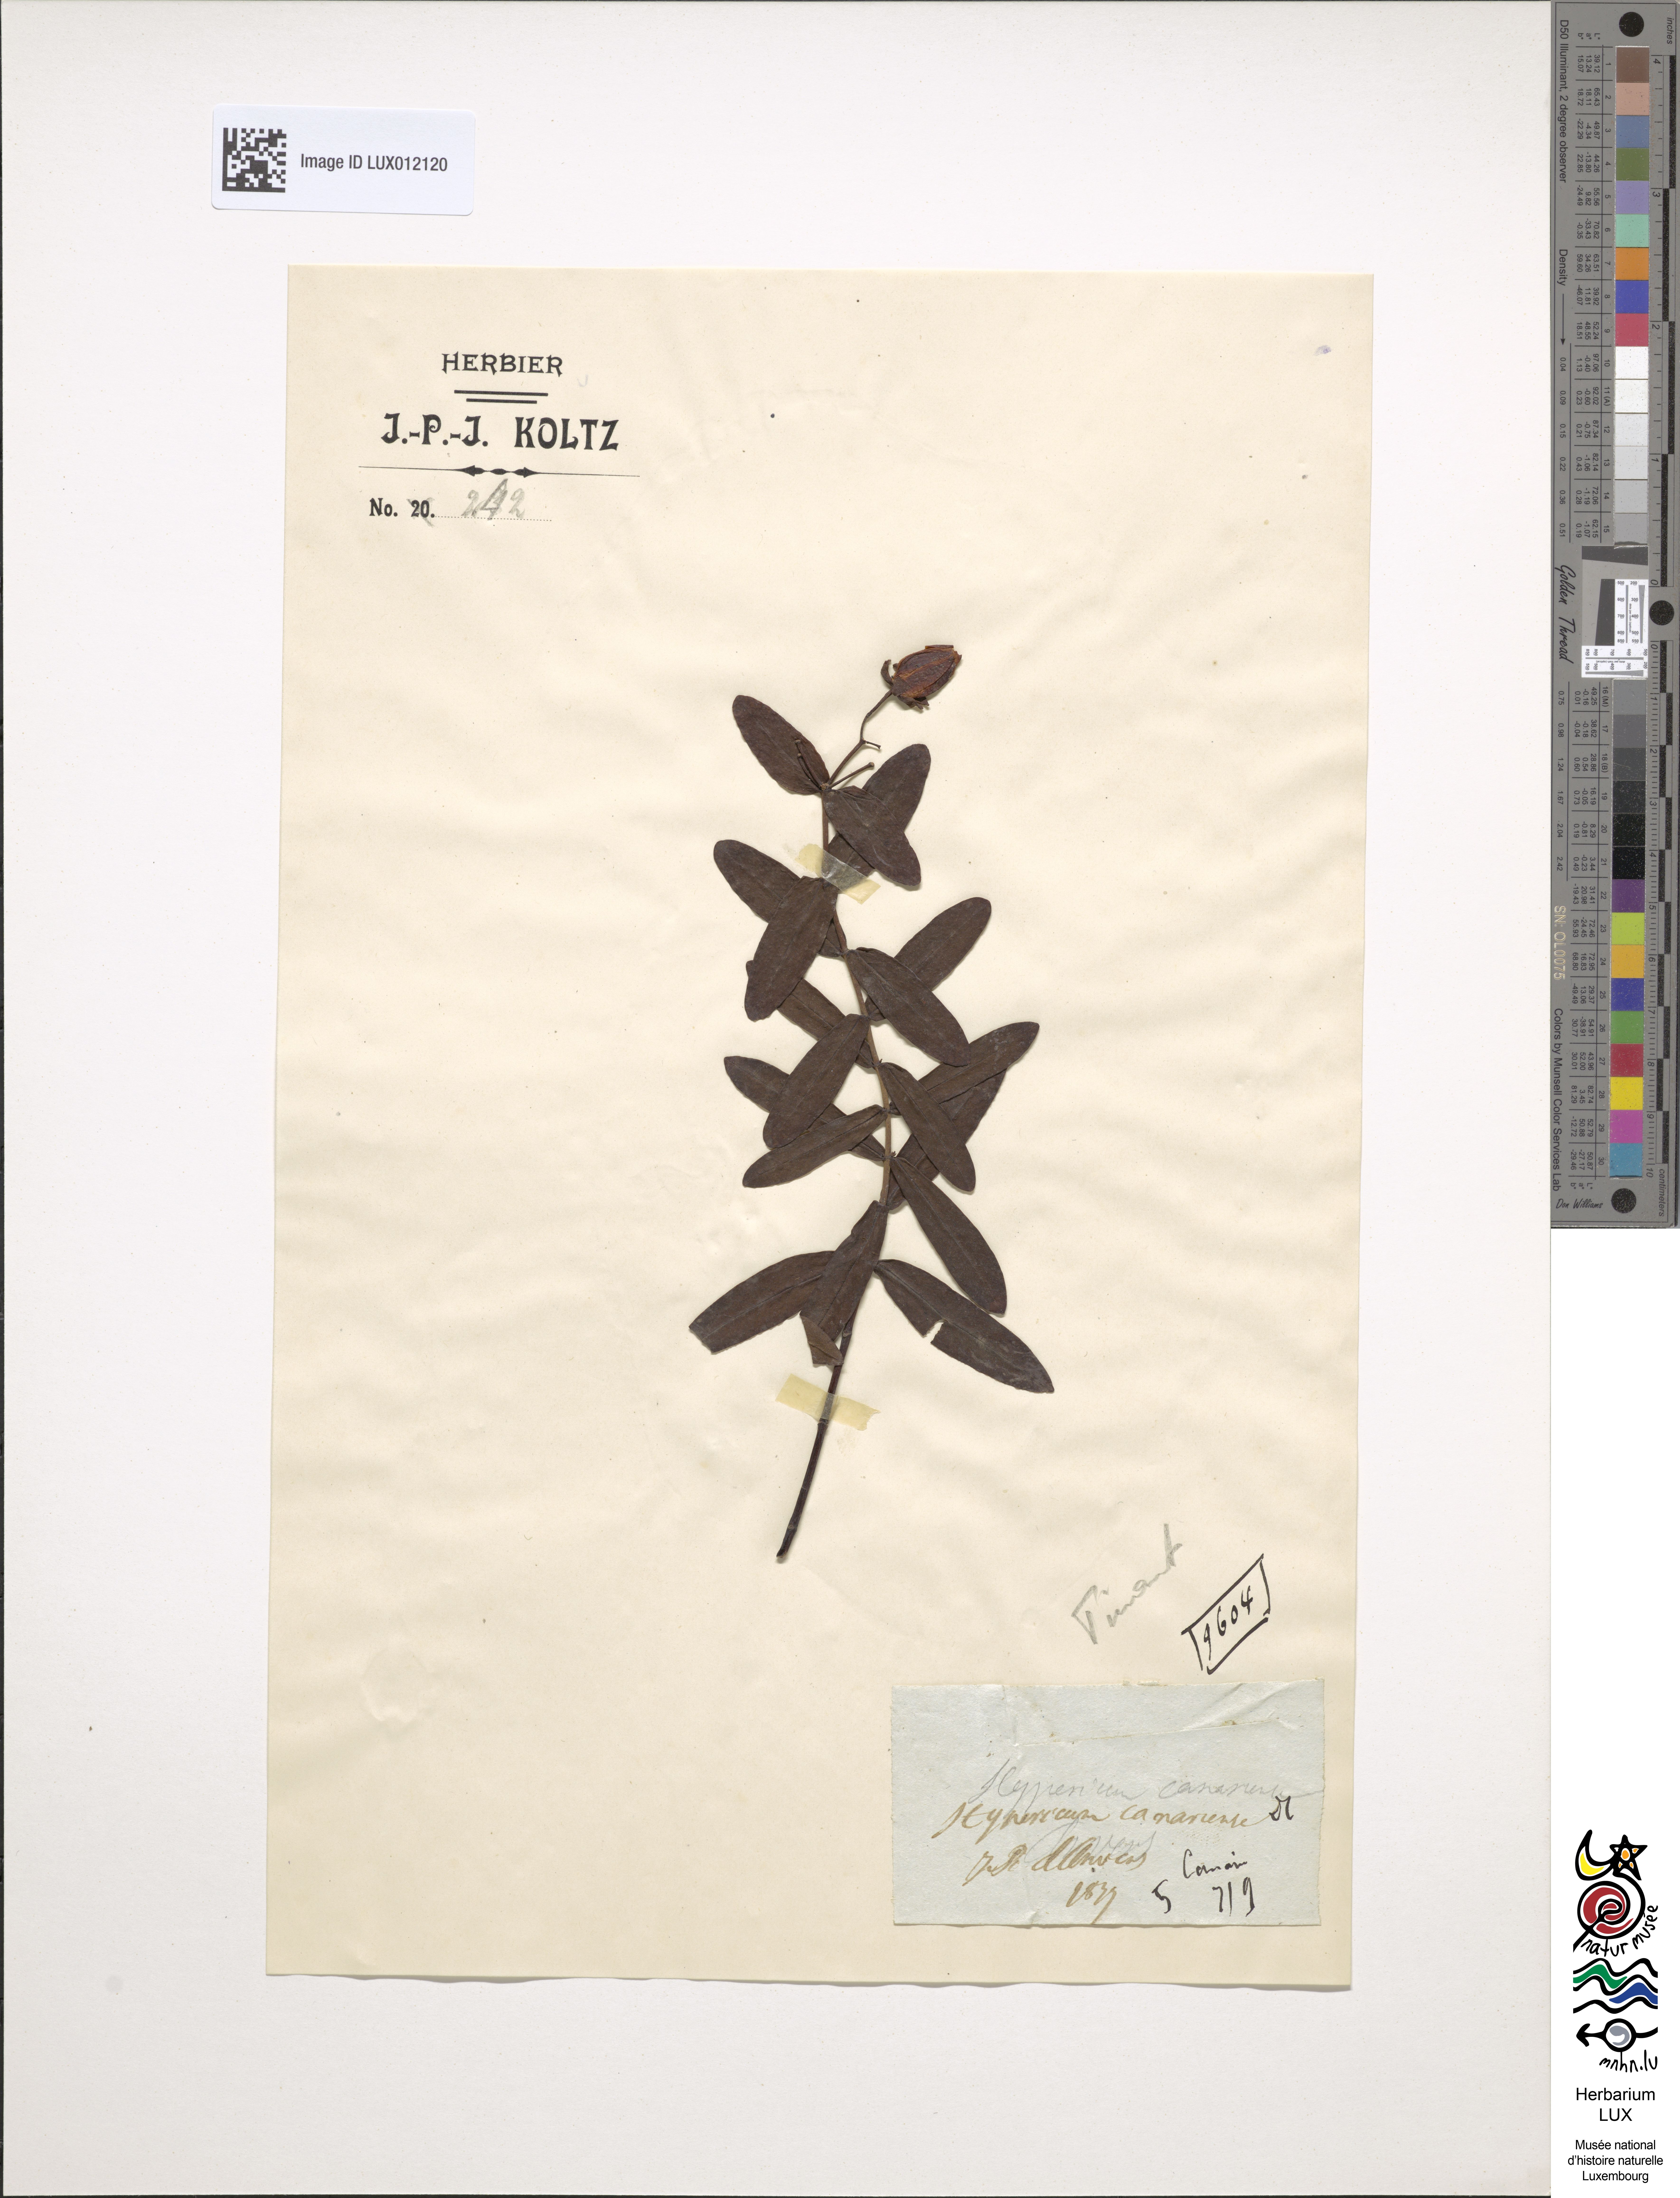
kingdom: Plantae
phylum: Tracheophyta
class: Magnoliopsida
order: Malpighiales
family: Hypericaceae
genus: Hypericum
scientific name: Hypericum canariense
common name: Canary island st. johnswort
